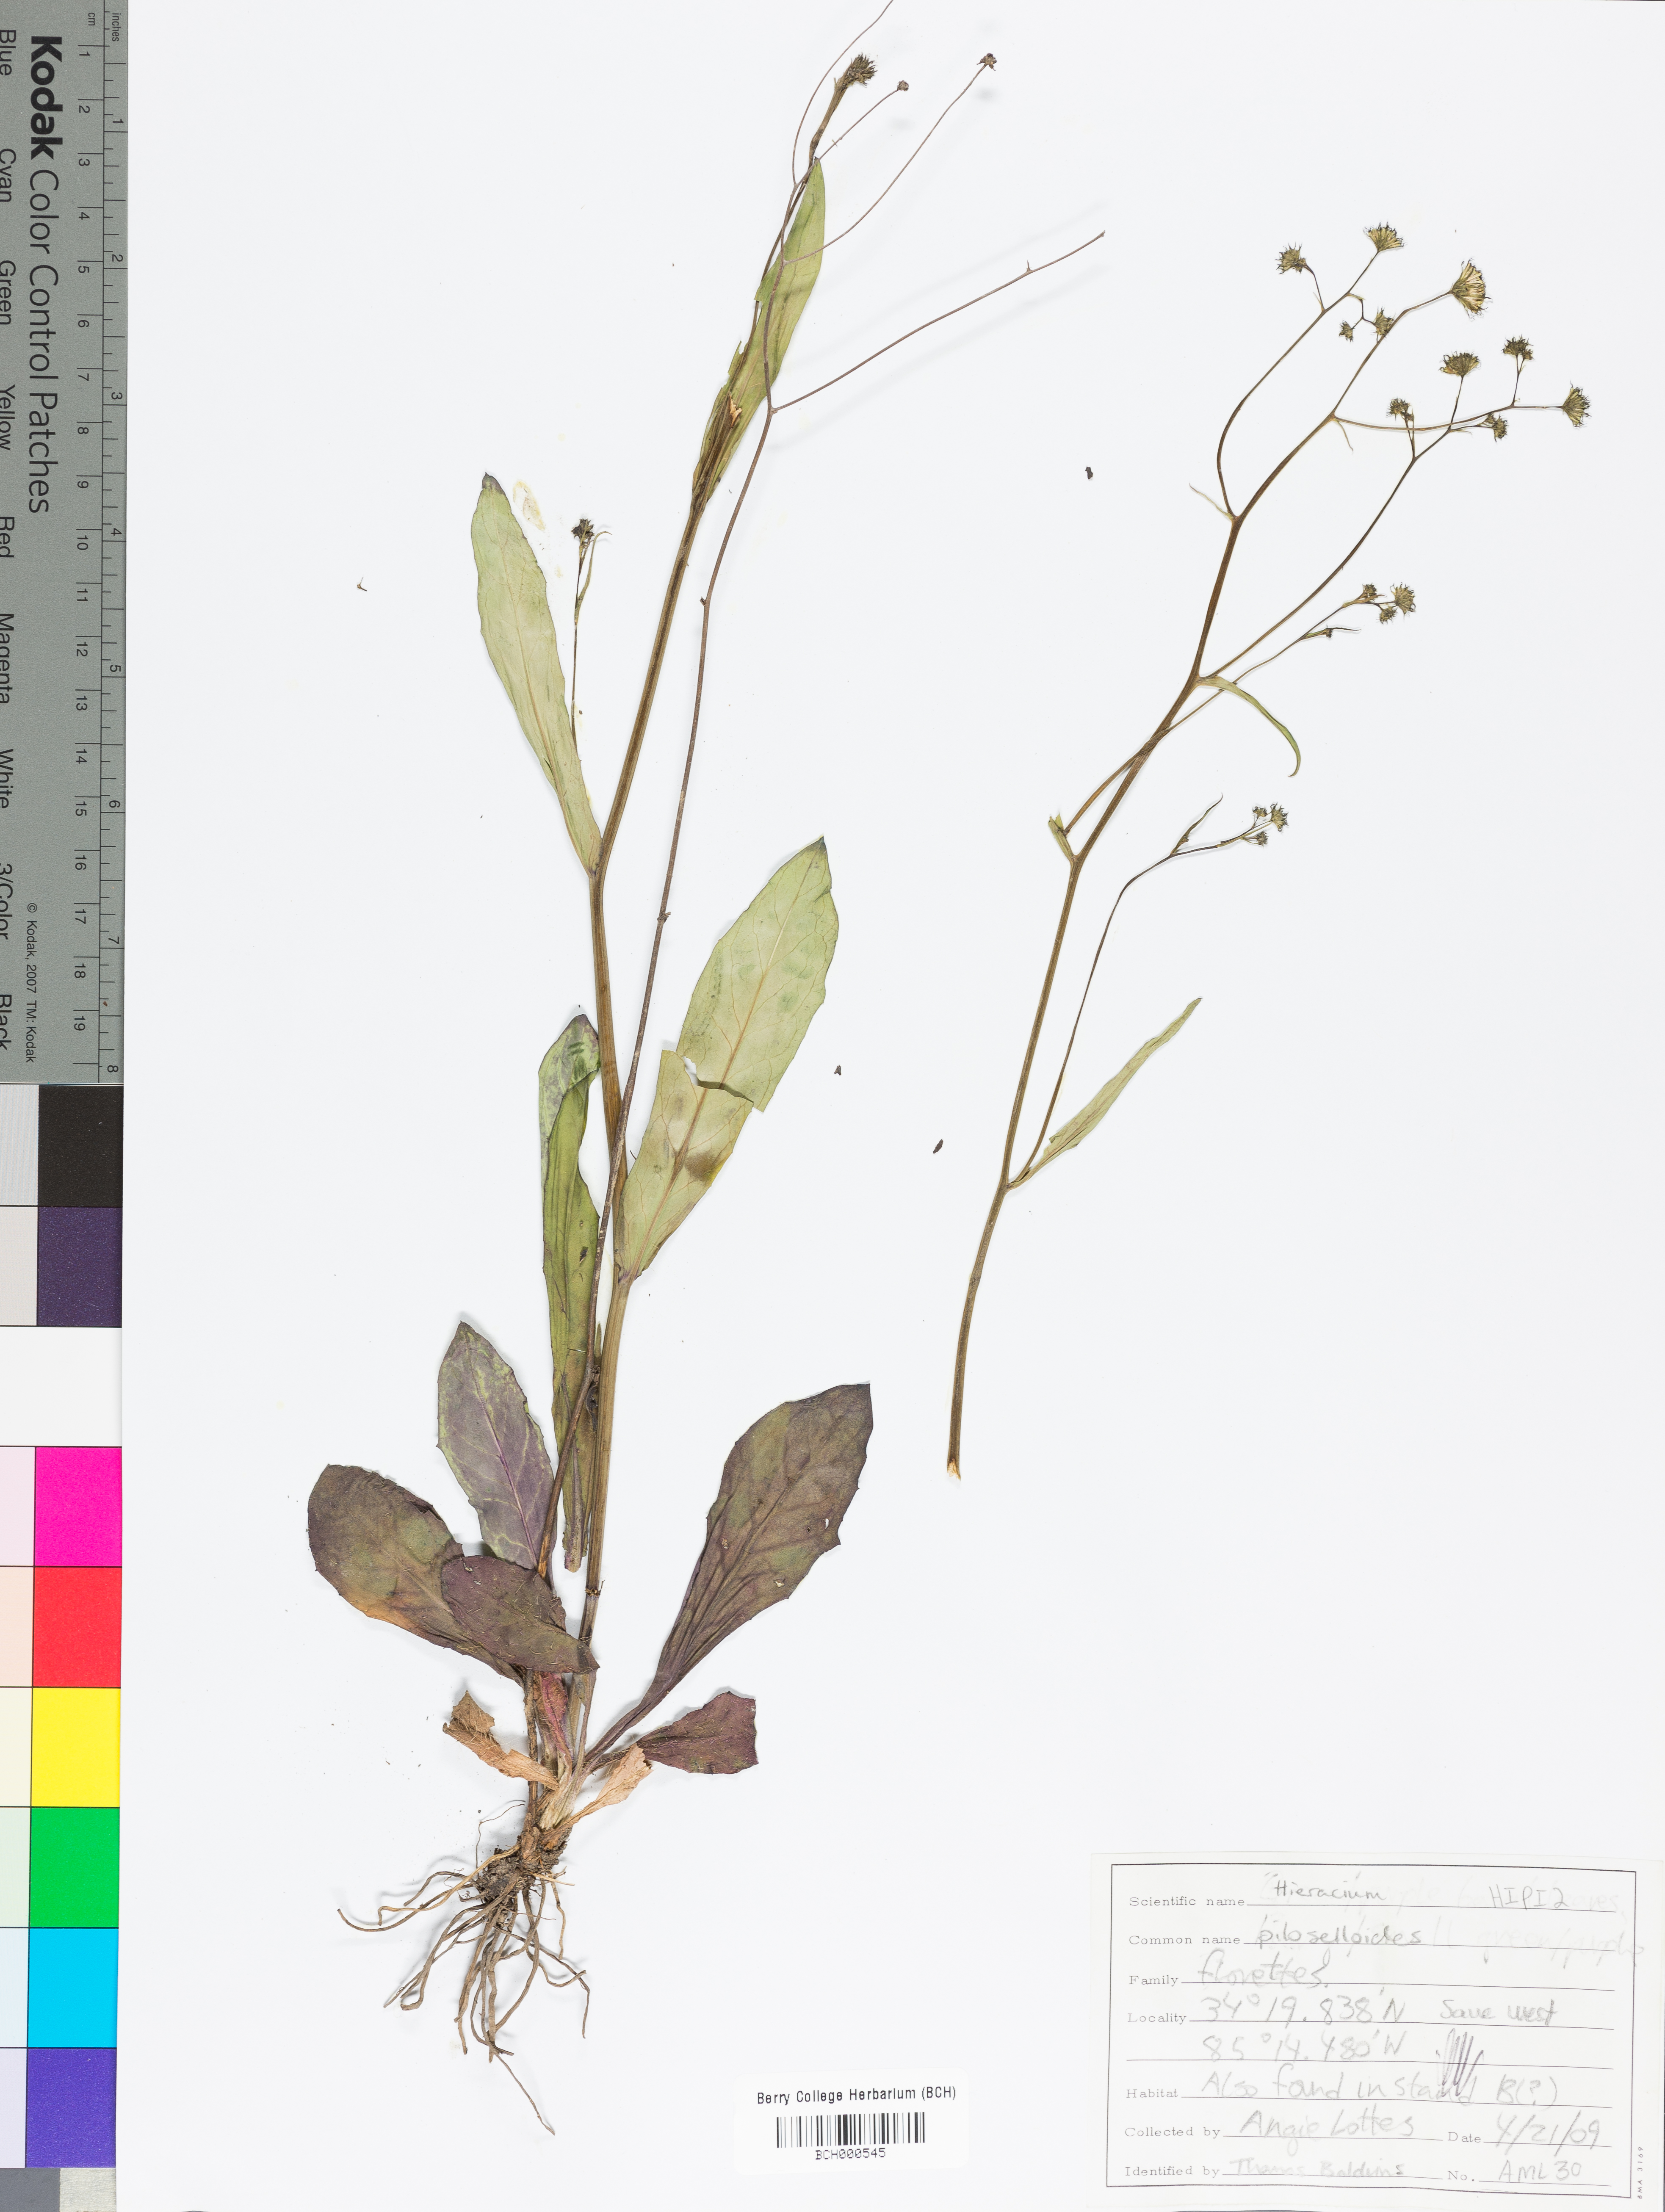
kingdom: Plantae
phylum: Tracheophyta
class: Magnoliopsida
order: Asterales
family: Asteraceae
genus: Pilosella
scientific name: Pilosella piloselloides
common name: Glaucous king-devil
